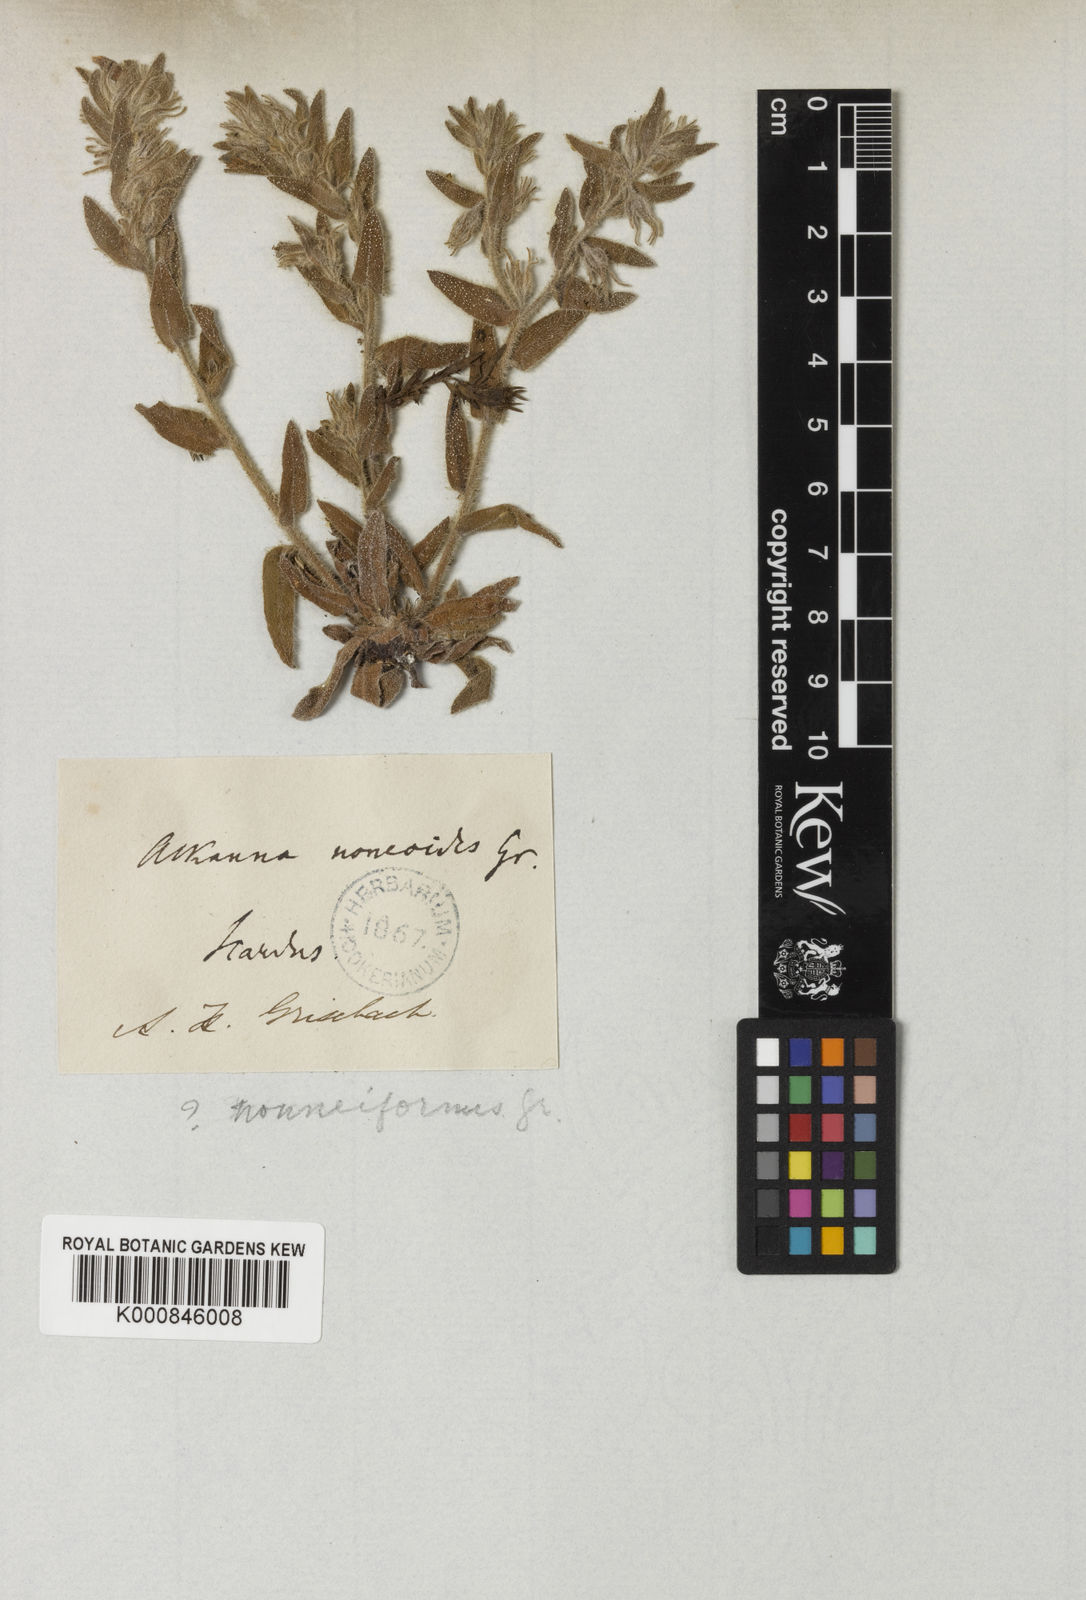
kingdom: Plantae
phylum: Tracheophyta
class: Magnoliopsida
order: Boraginales
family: Boraginaceae
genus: Alkanna
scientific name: Alkanna pindicola
